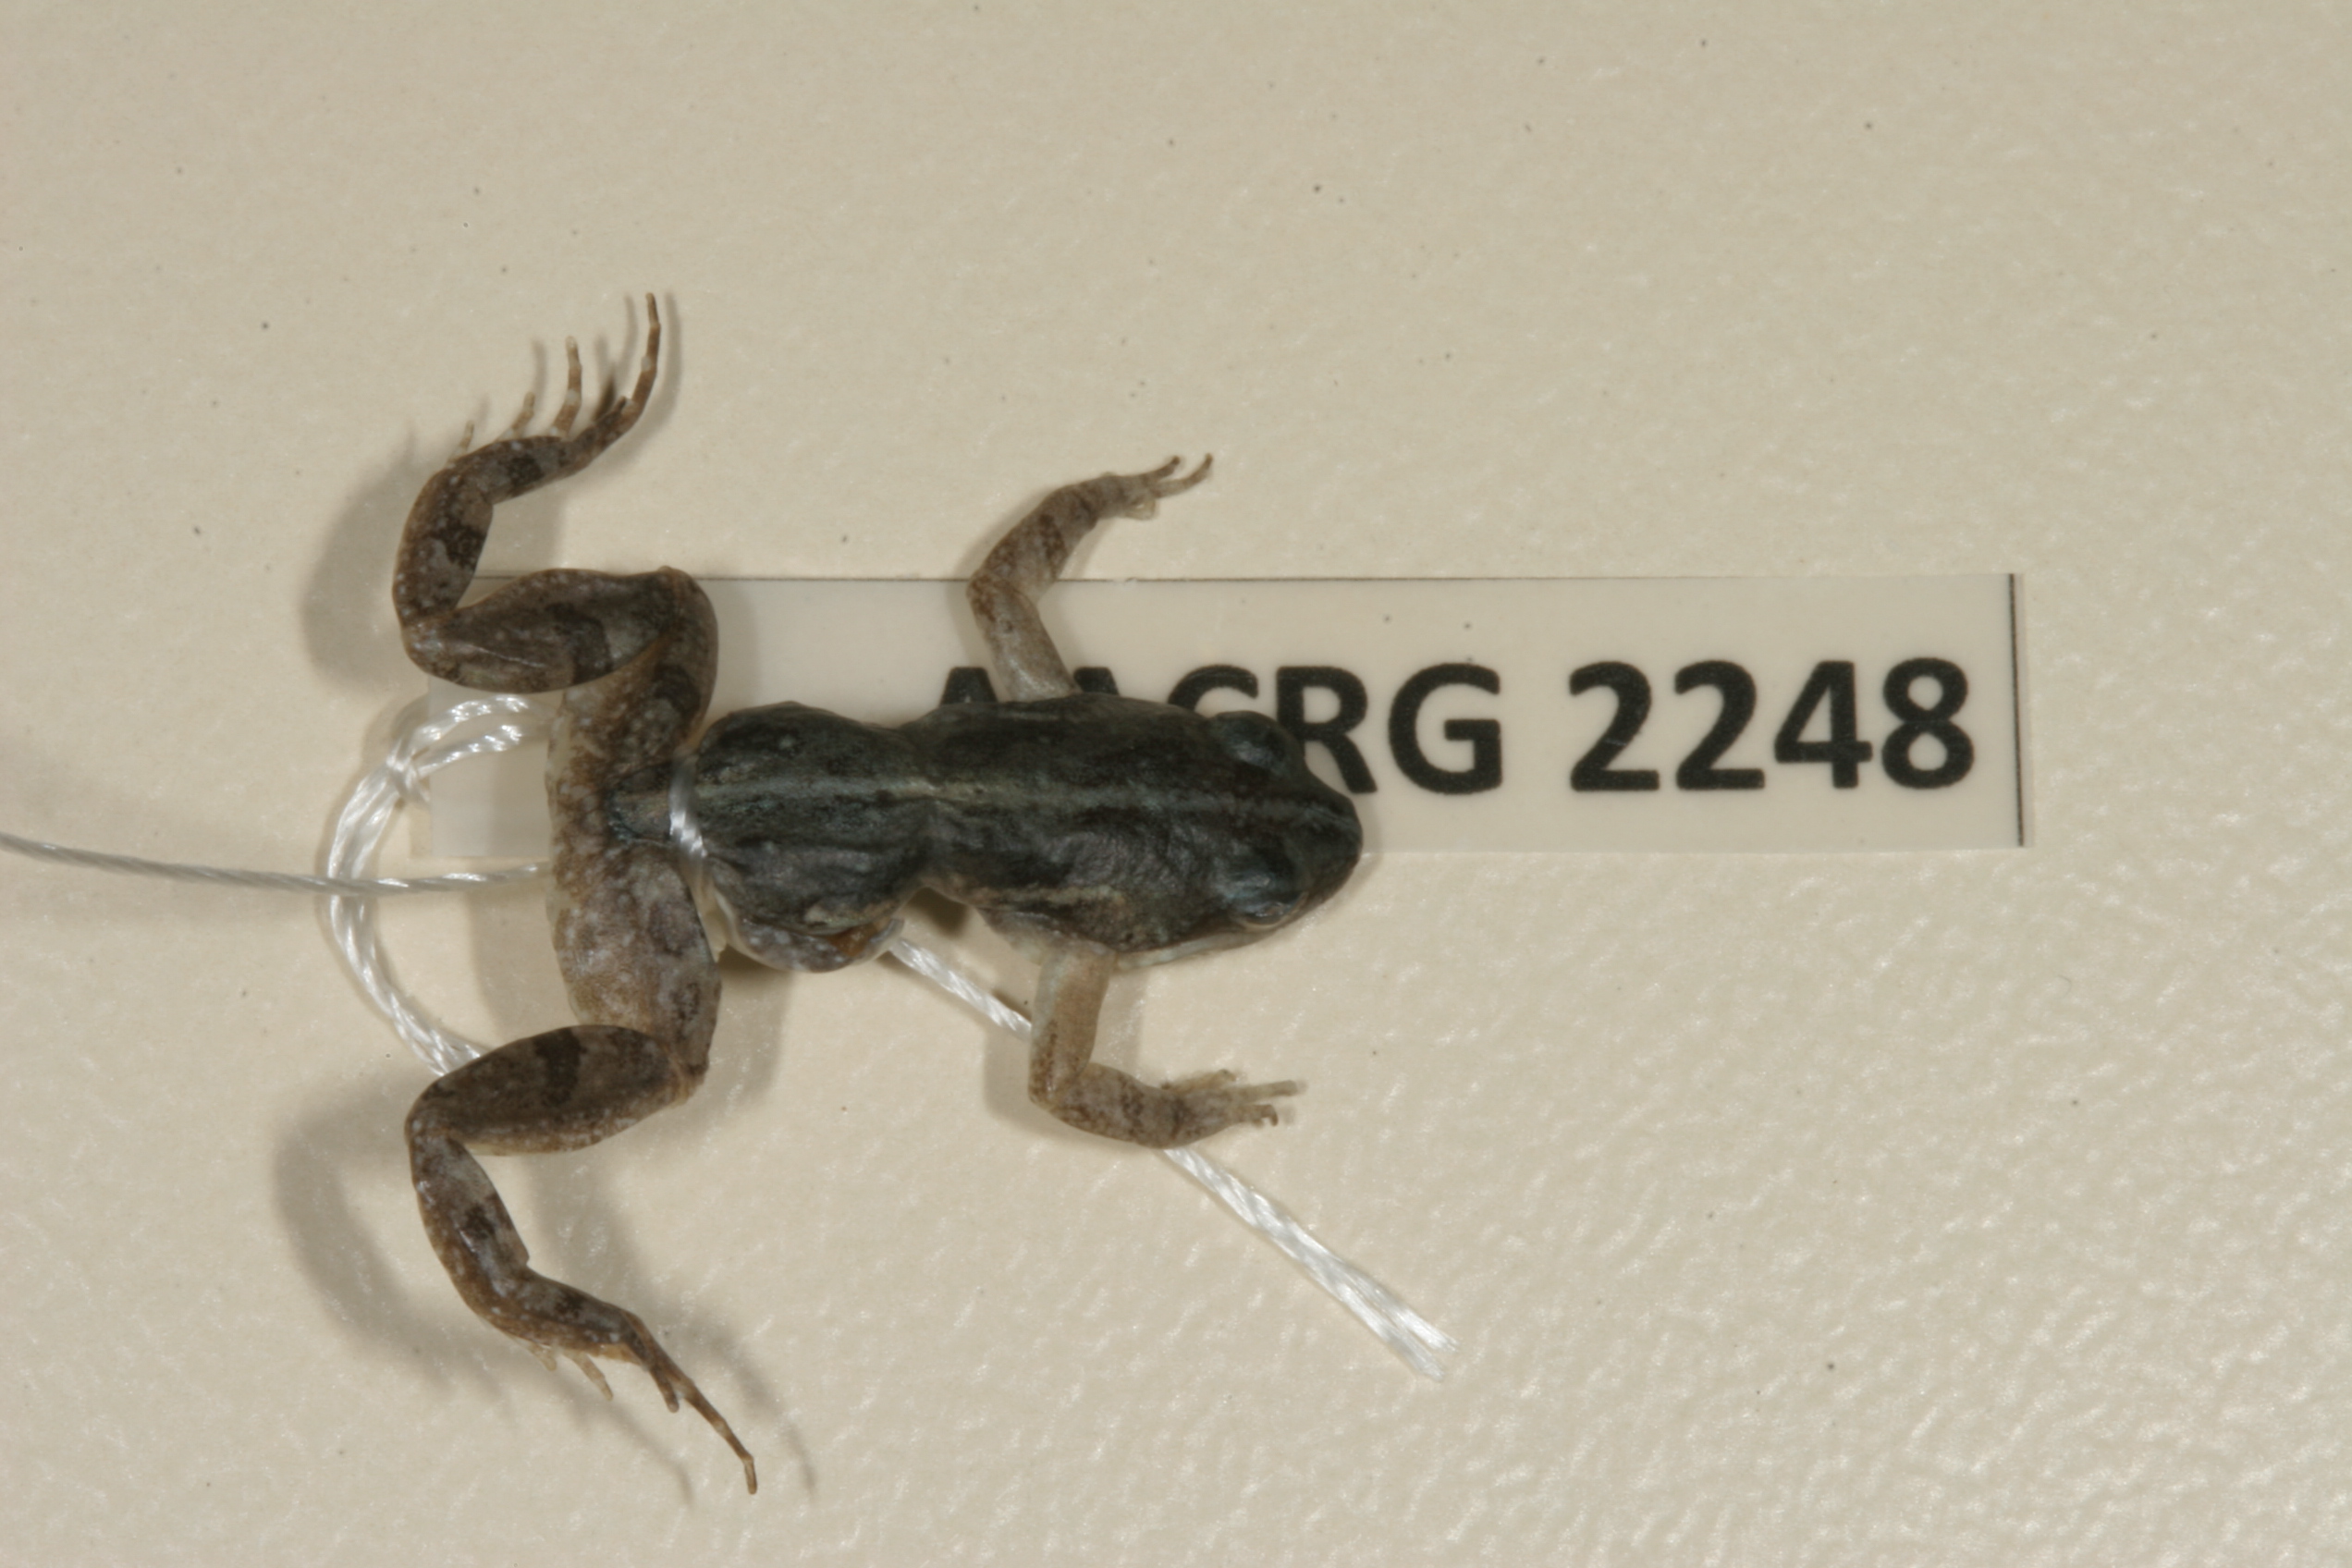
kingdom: Animalia
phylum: Chordata
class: Amphibia
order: Anura
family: Pyxicephalidae
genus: Cacosternum
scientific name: Cacosternum boettgeri
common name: Boettger's frog
